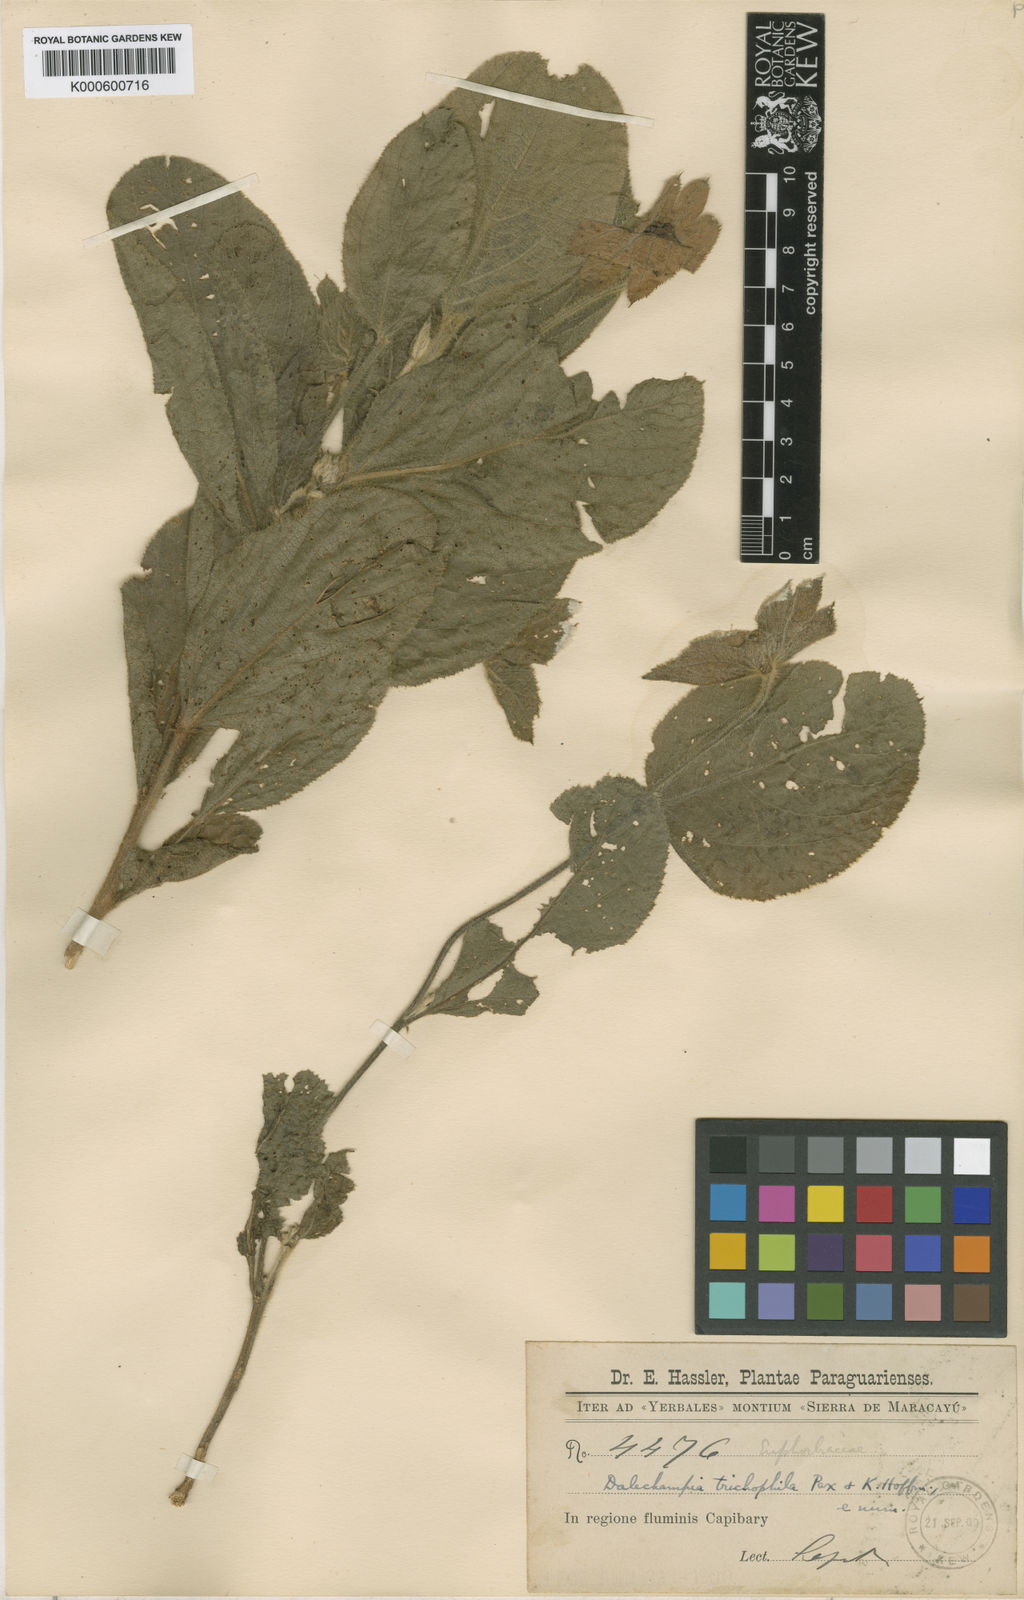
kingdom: Plantae
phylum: Tracheophyta
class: Magnoliopsida
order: Malpighiales
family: Euphorbiaceae
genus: Dalechampia
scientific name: Dalechampia weddelliana
